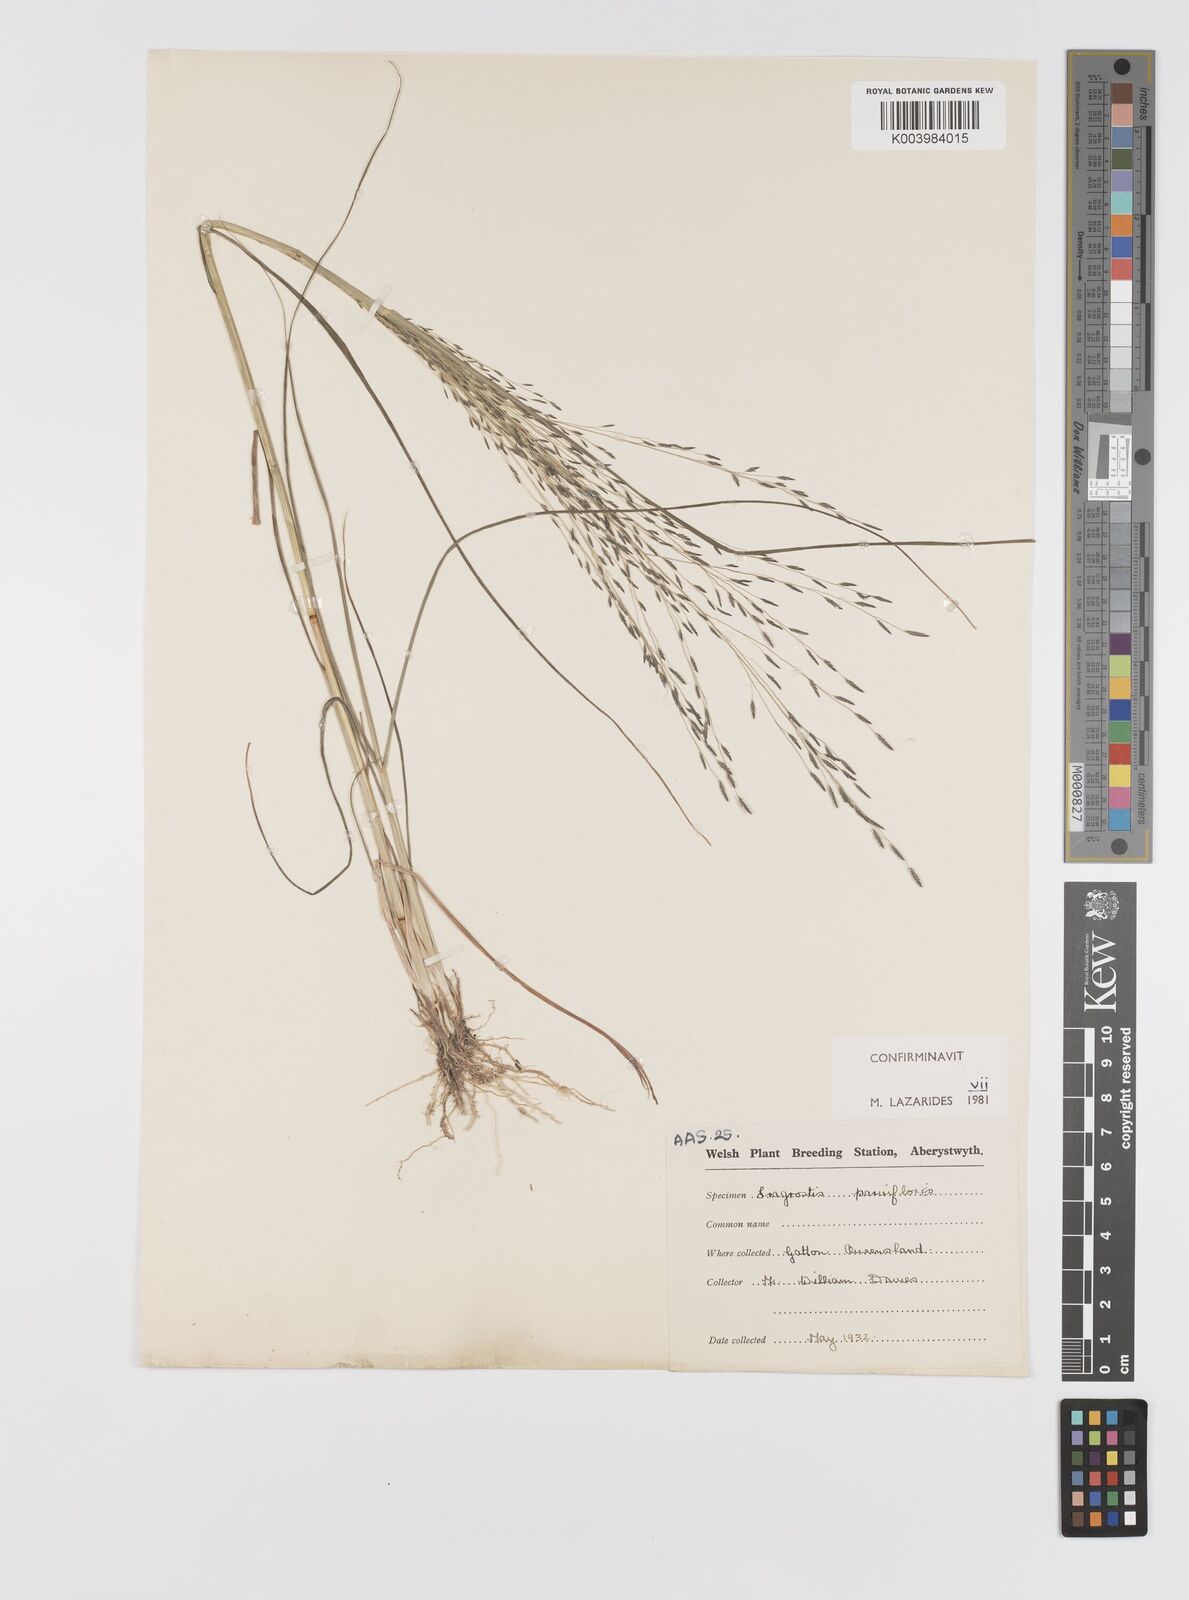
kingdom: Plantae
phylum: Tracheophyta
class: Liliopsida
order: Poales
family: Poaceae
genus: Eragrostis
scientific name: Eragrostis parviflora
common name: Weeping love-grass
